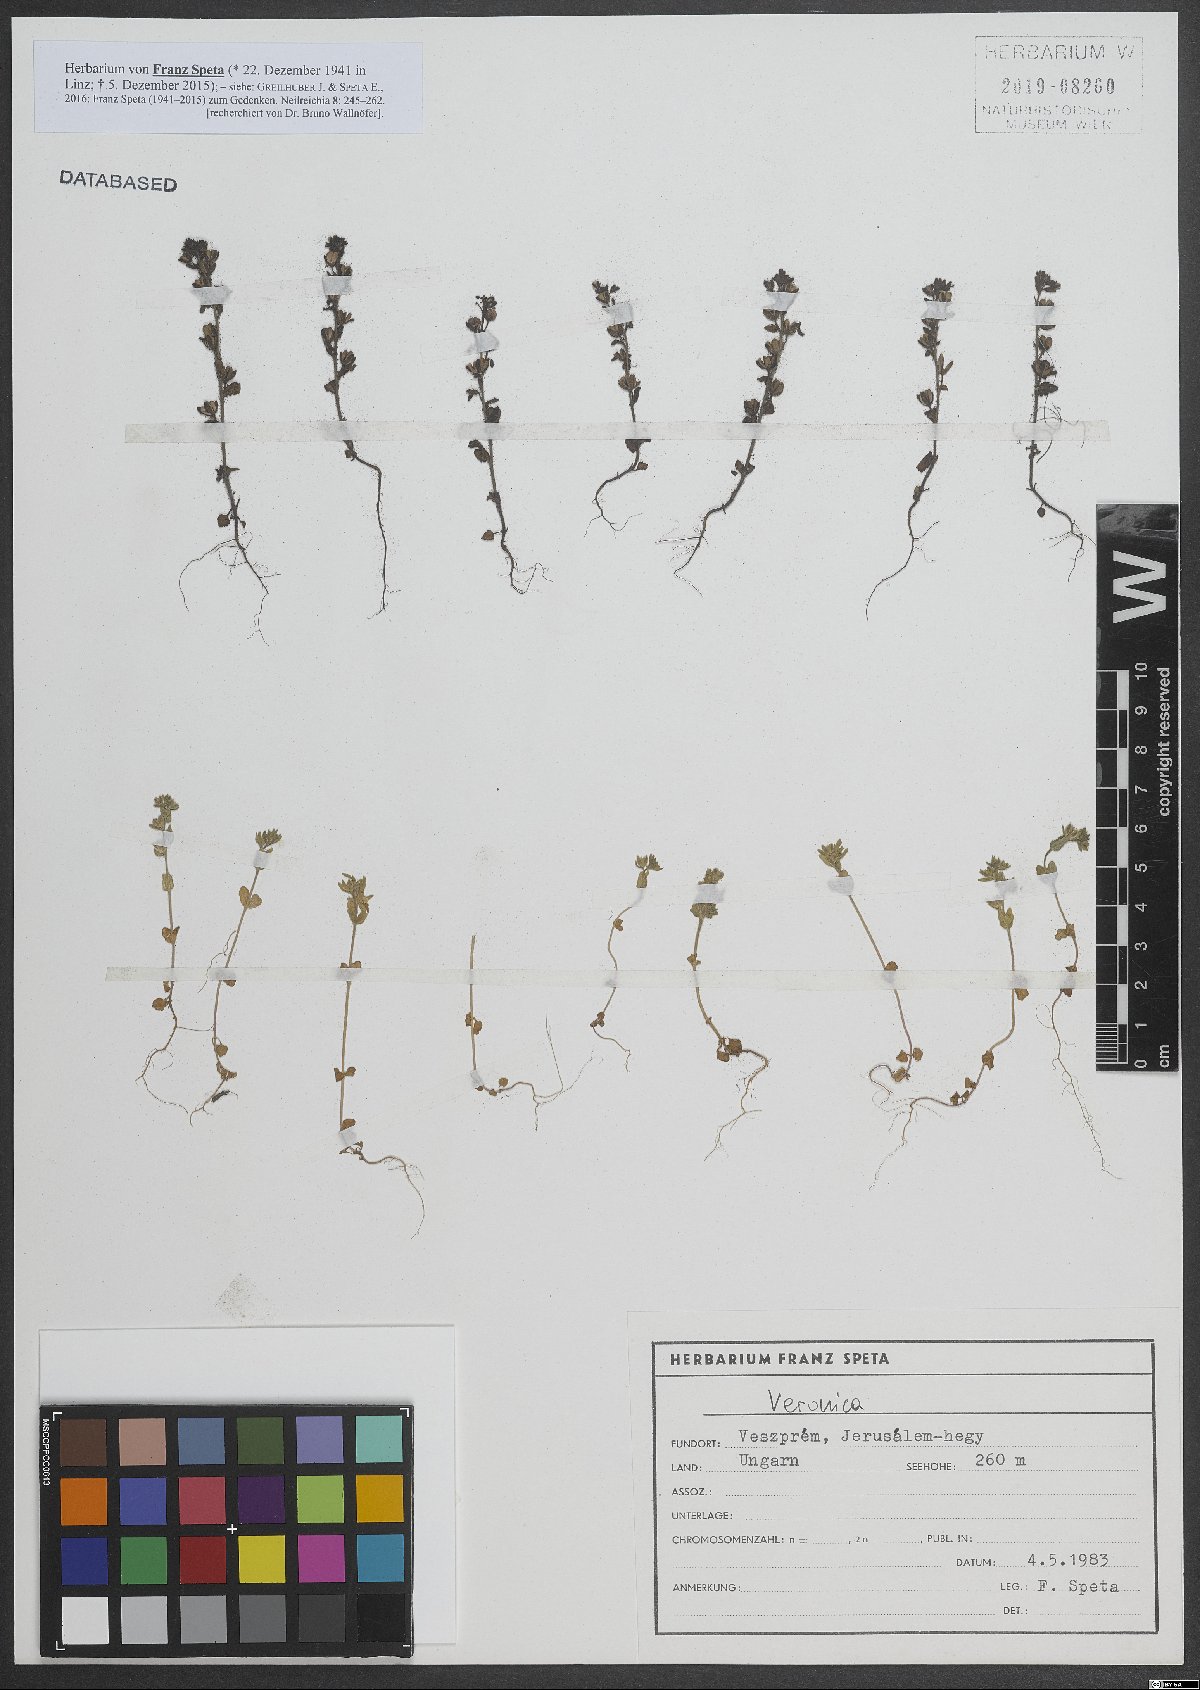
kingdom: Plantae
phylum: Tracheophyta
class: Magnoliopsida
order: Lamiales
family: Plantaginaceae
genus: Veronica
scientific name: Veronica
